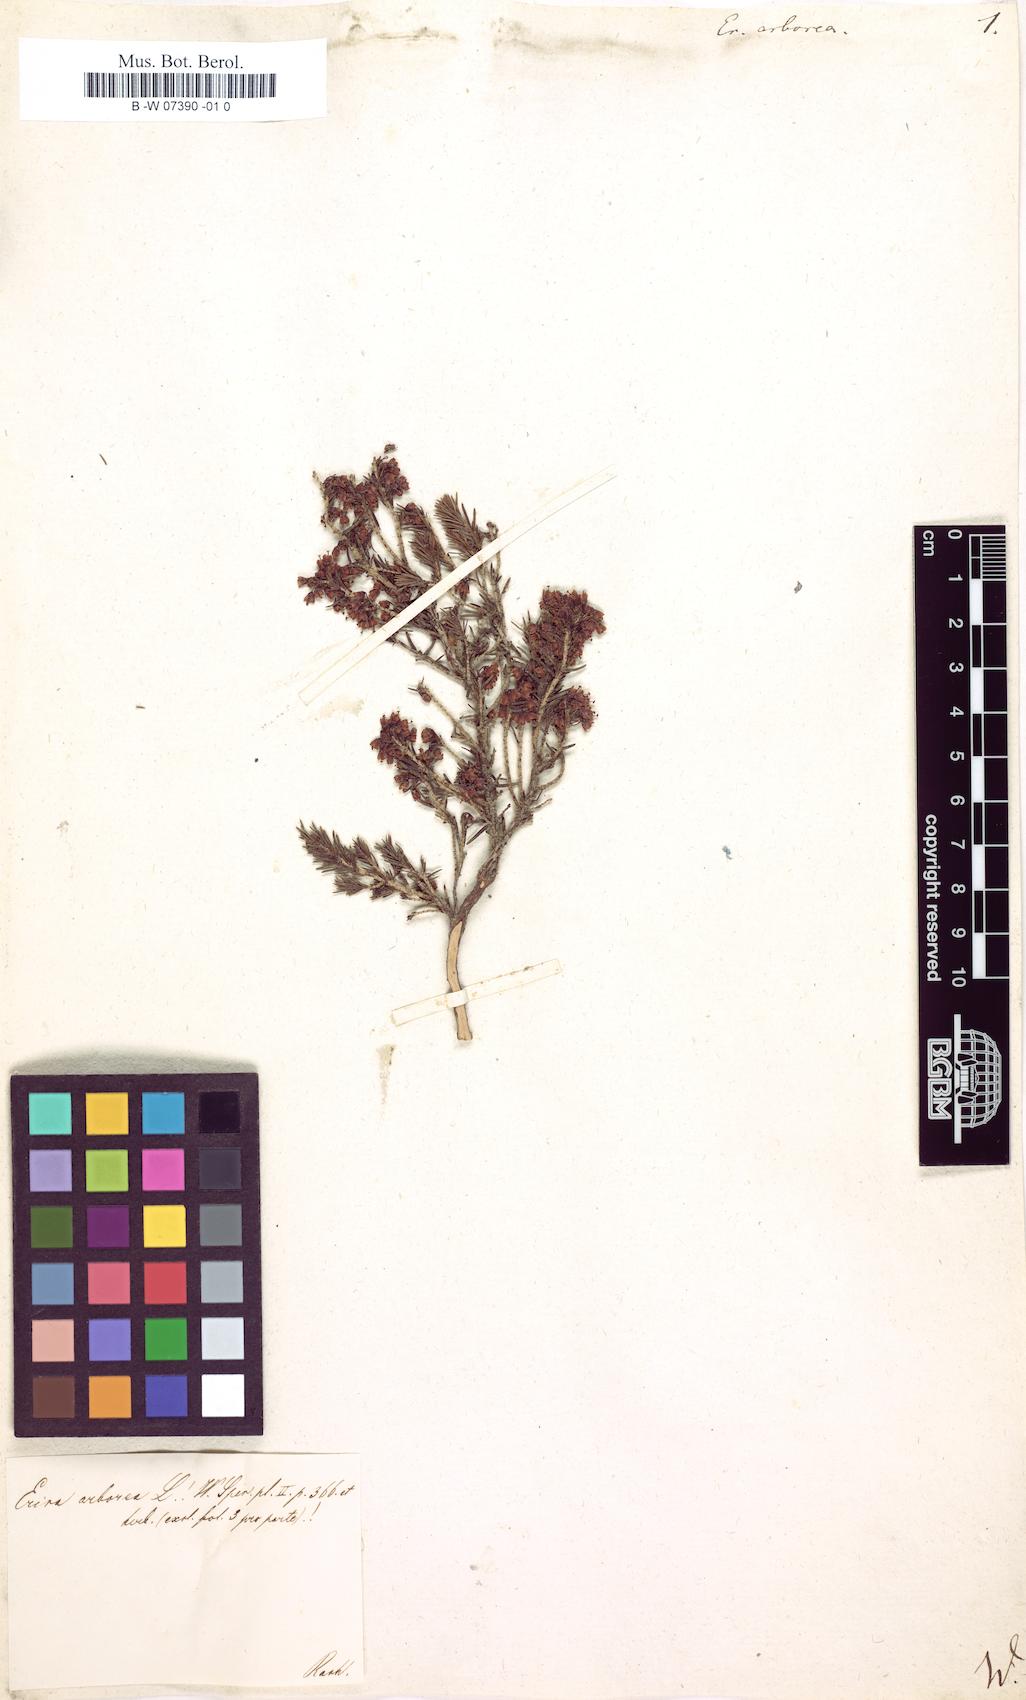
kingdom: Plantae
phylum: Tracheophyta
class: Magnoliopsida
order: Ericales
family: Ericaceae
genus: Erica
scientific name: Erica arborea
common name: Tree heath
